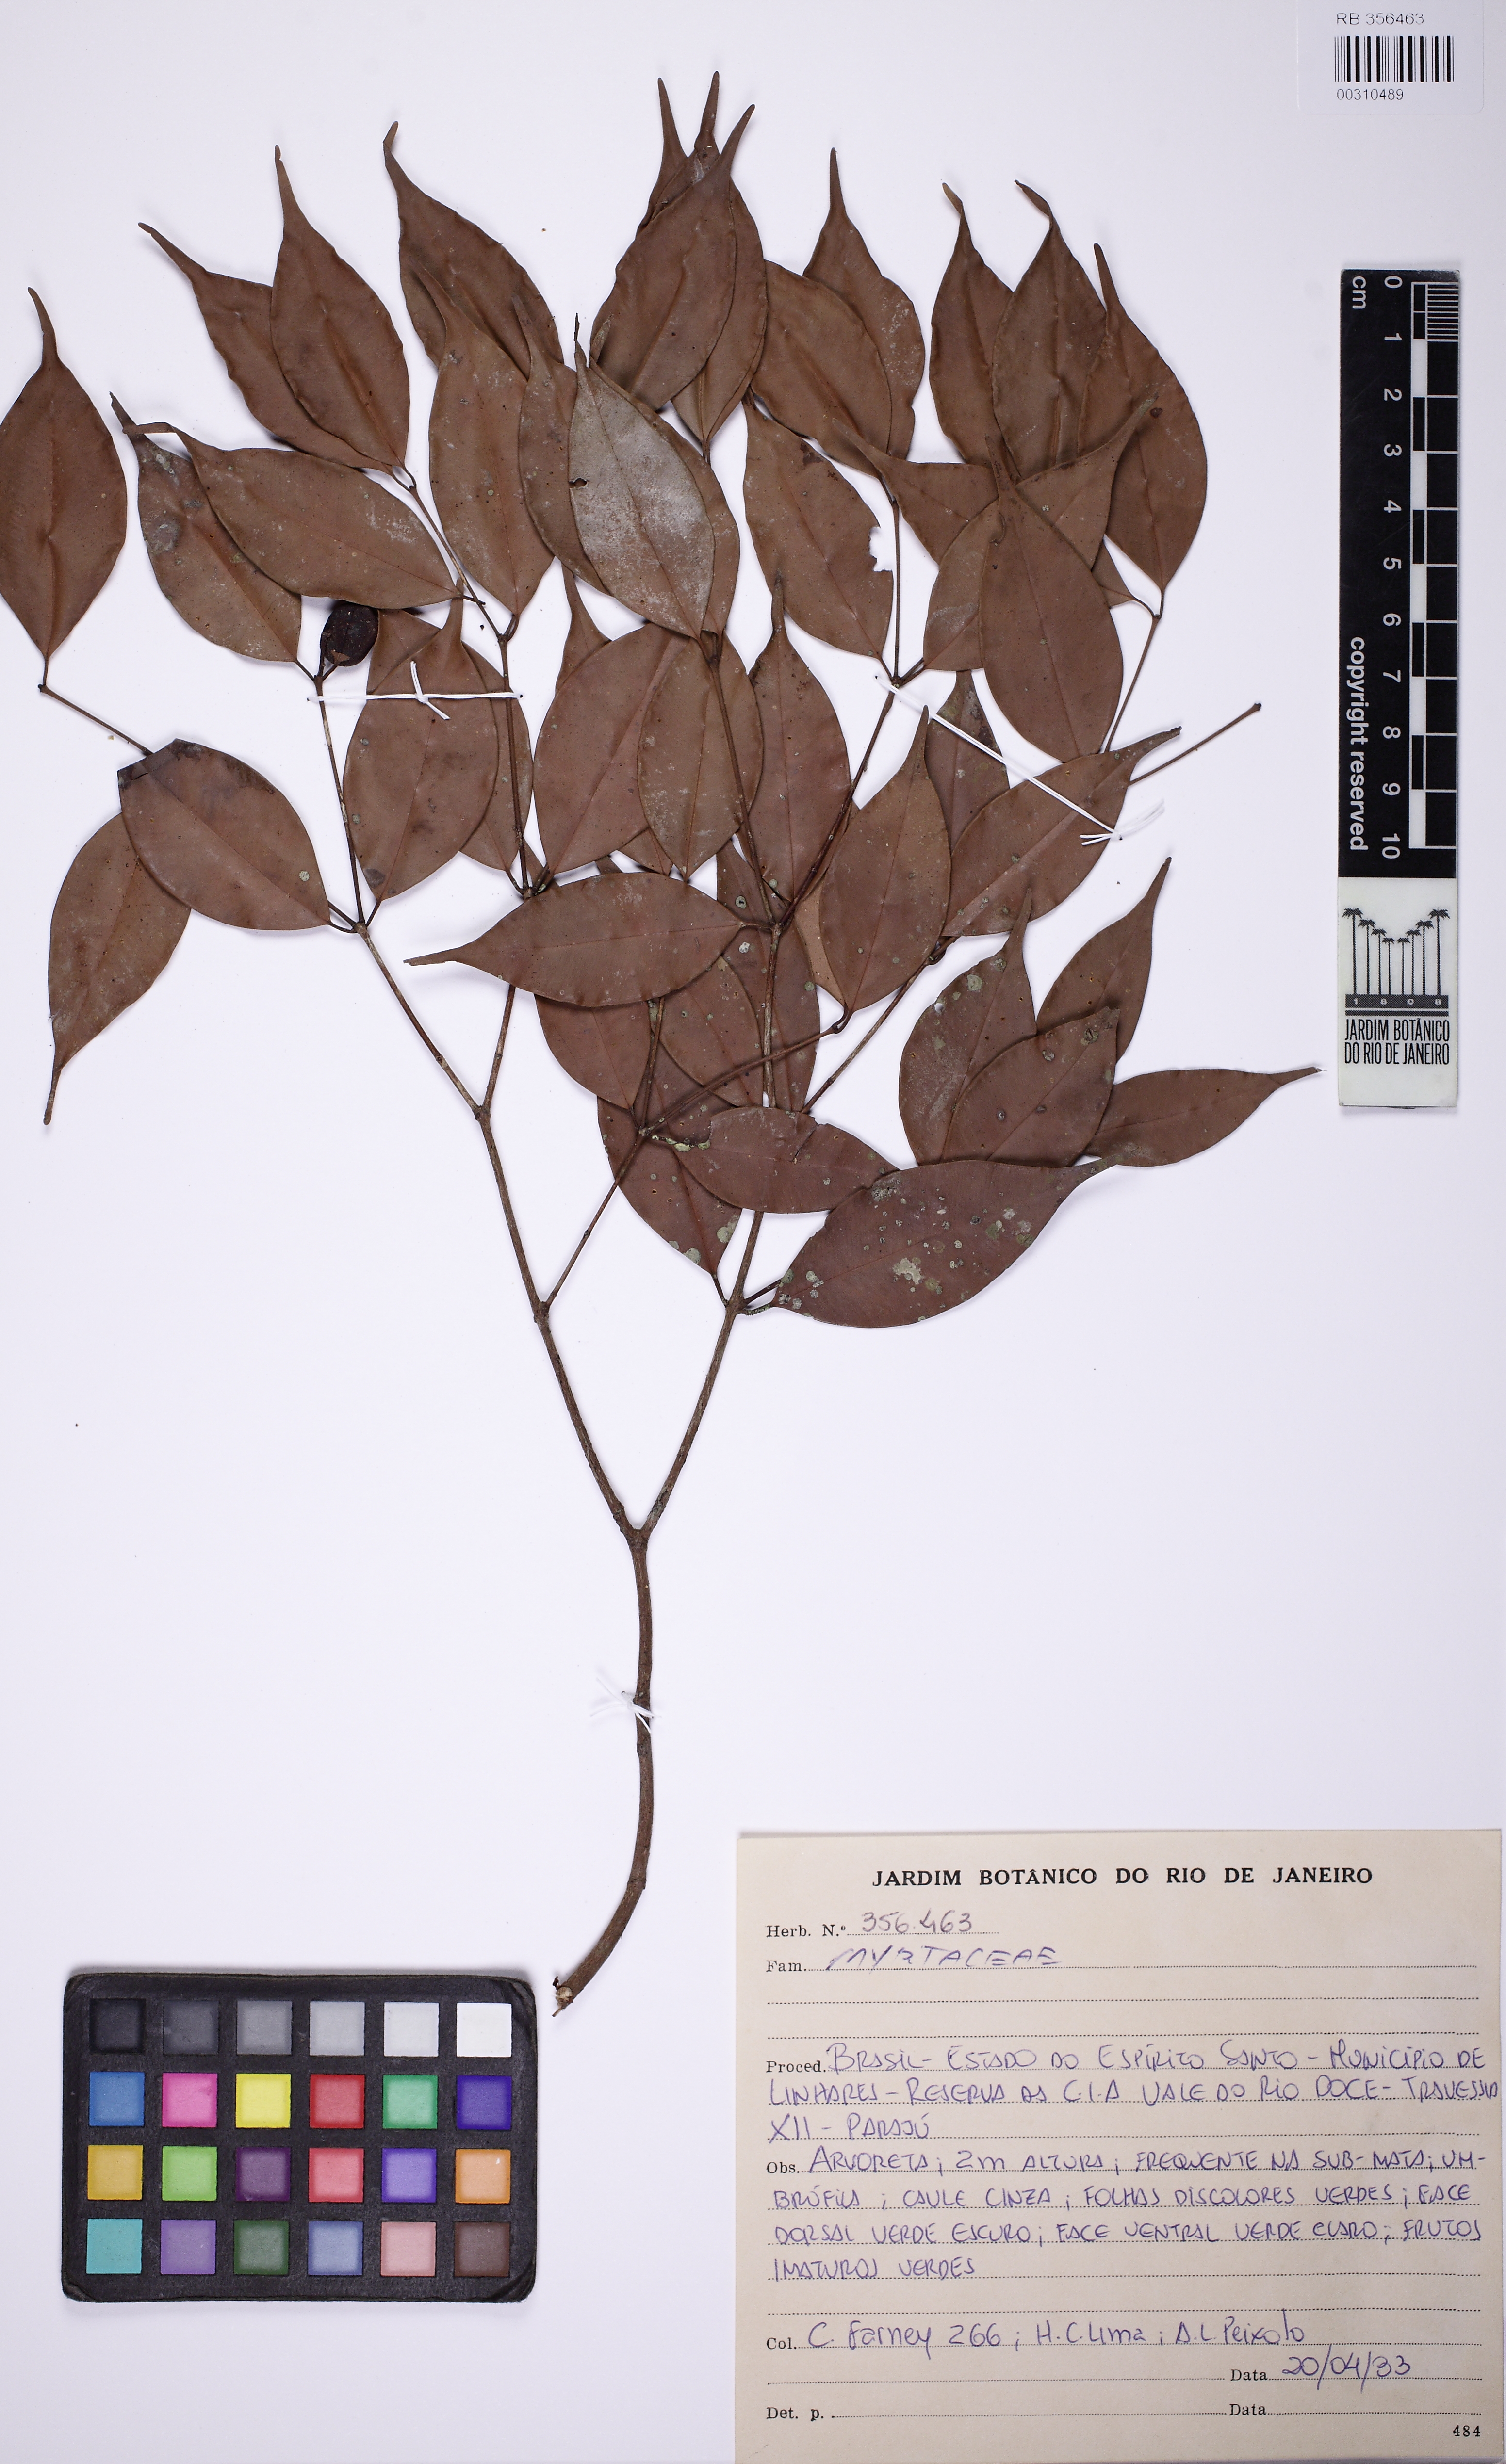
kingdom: Plantae
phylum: Tracheophyta
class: Magnoliopsida
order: Myrtales
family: Myrtaceae
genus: Eugenia
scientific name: Eugenia zuccarinii
